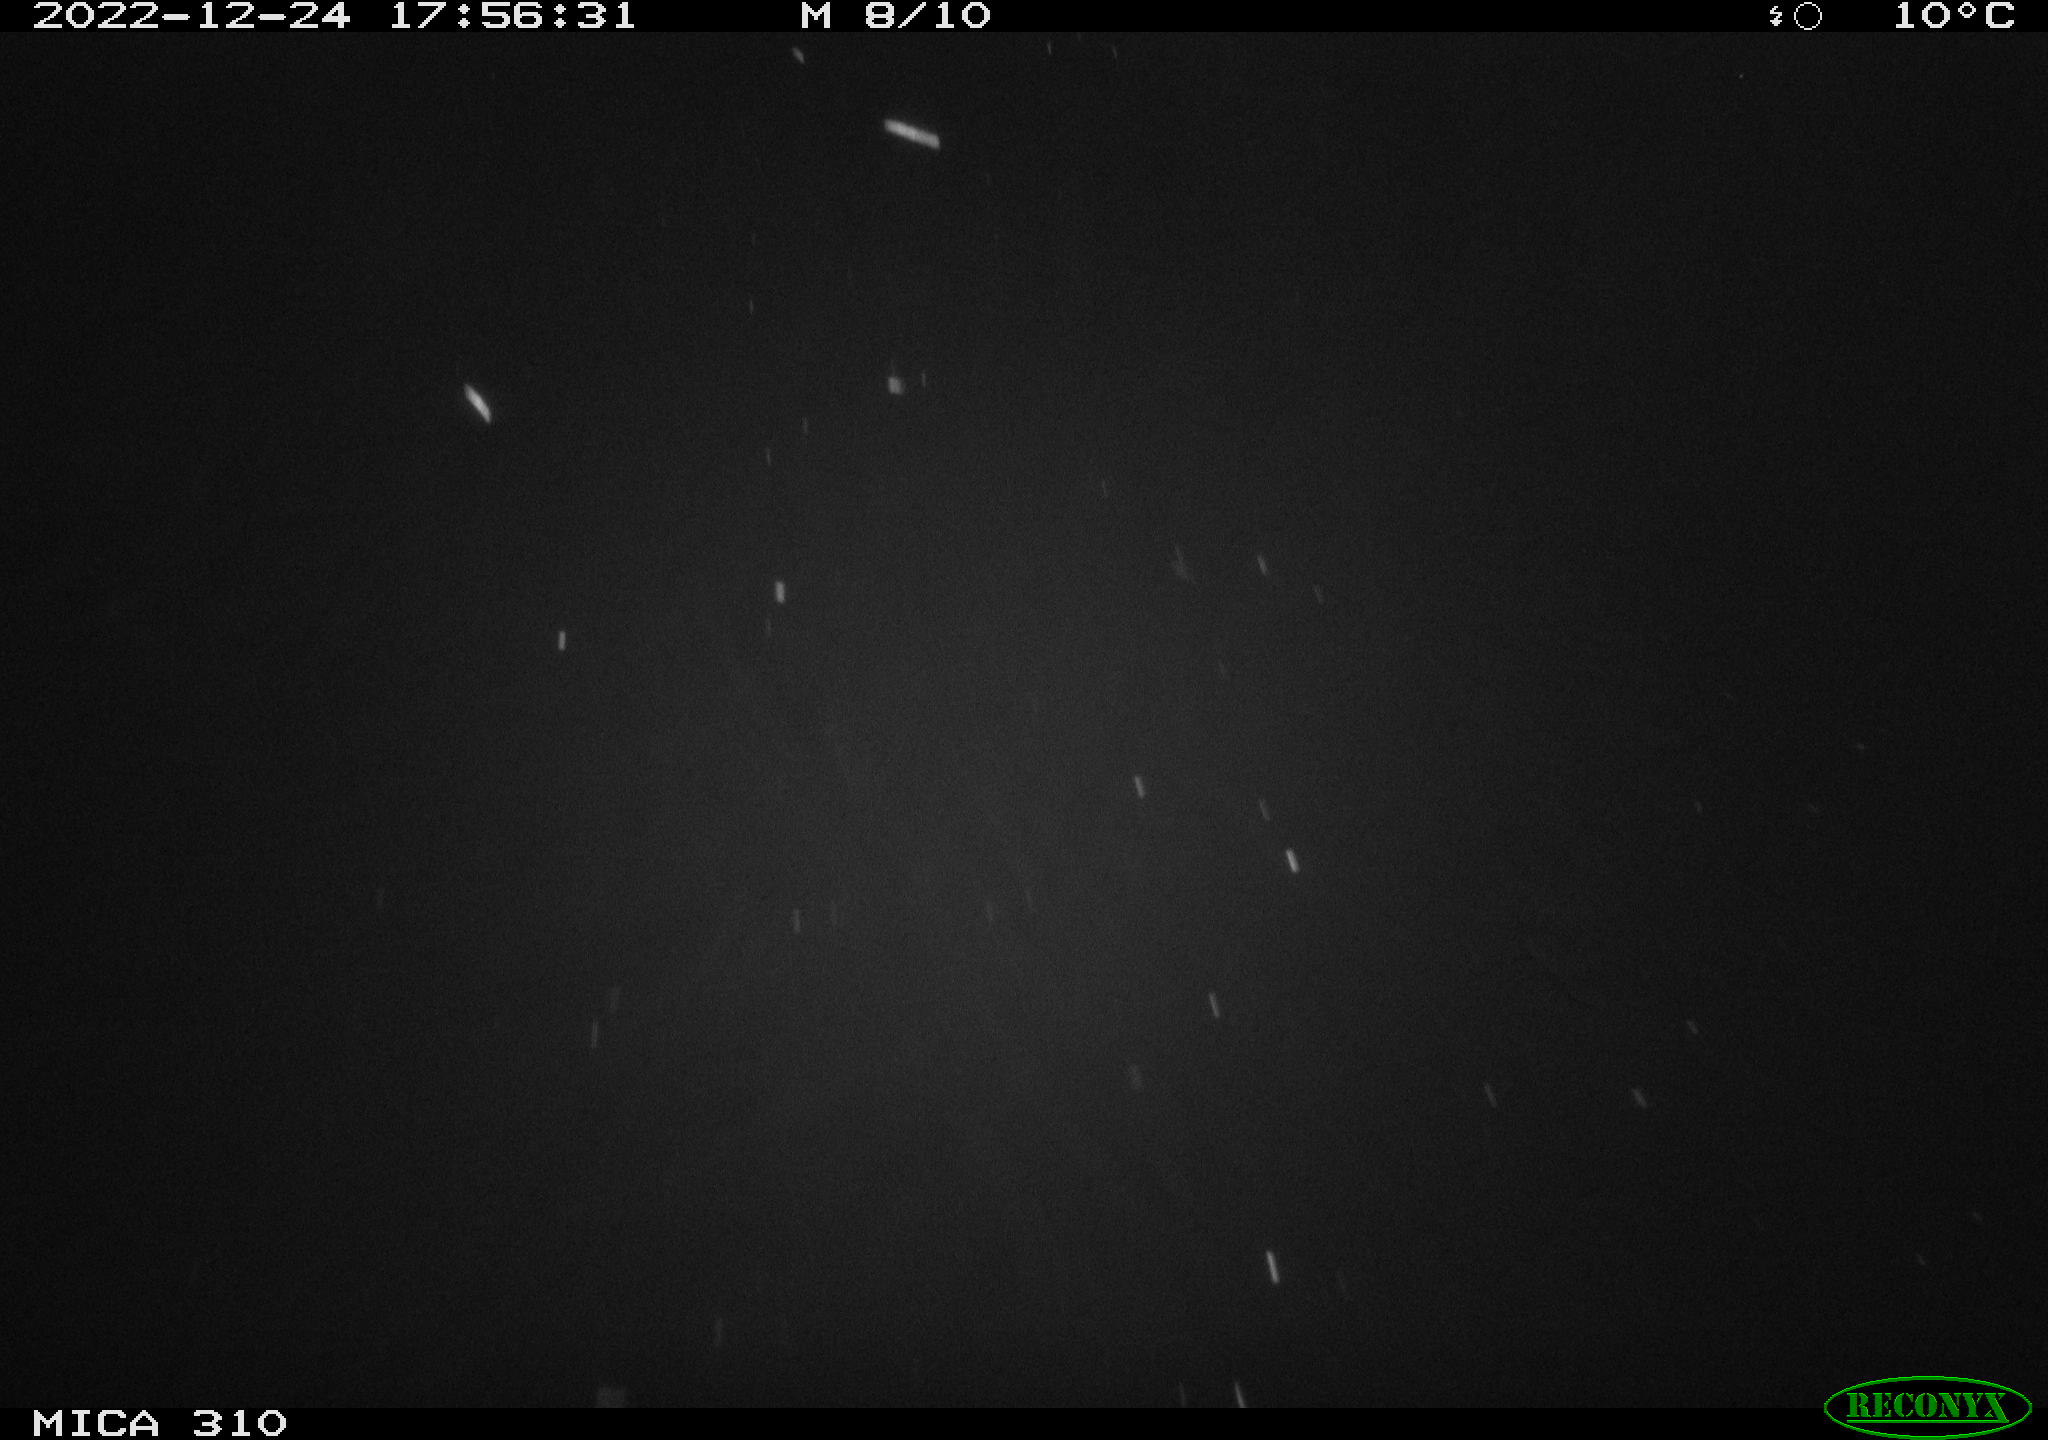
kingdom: Animalia
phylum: Chordata
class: Mammalia
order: Rodentia
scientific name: Rodentia
